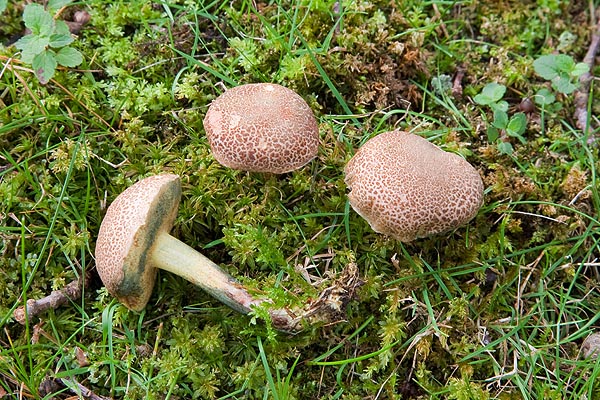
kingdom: Fungi
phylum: Basidiomycota
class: Agaricomycetes
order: Boletales
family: Boletaceae
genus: Xerocomellus
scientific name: Xerocomellus cisalpinus
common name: finsprukken rørhat
